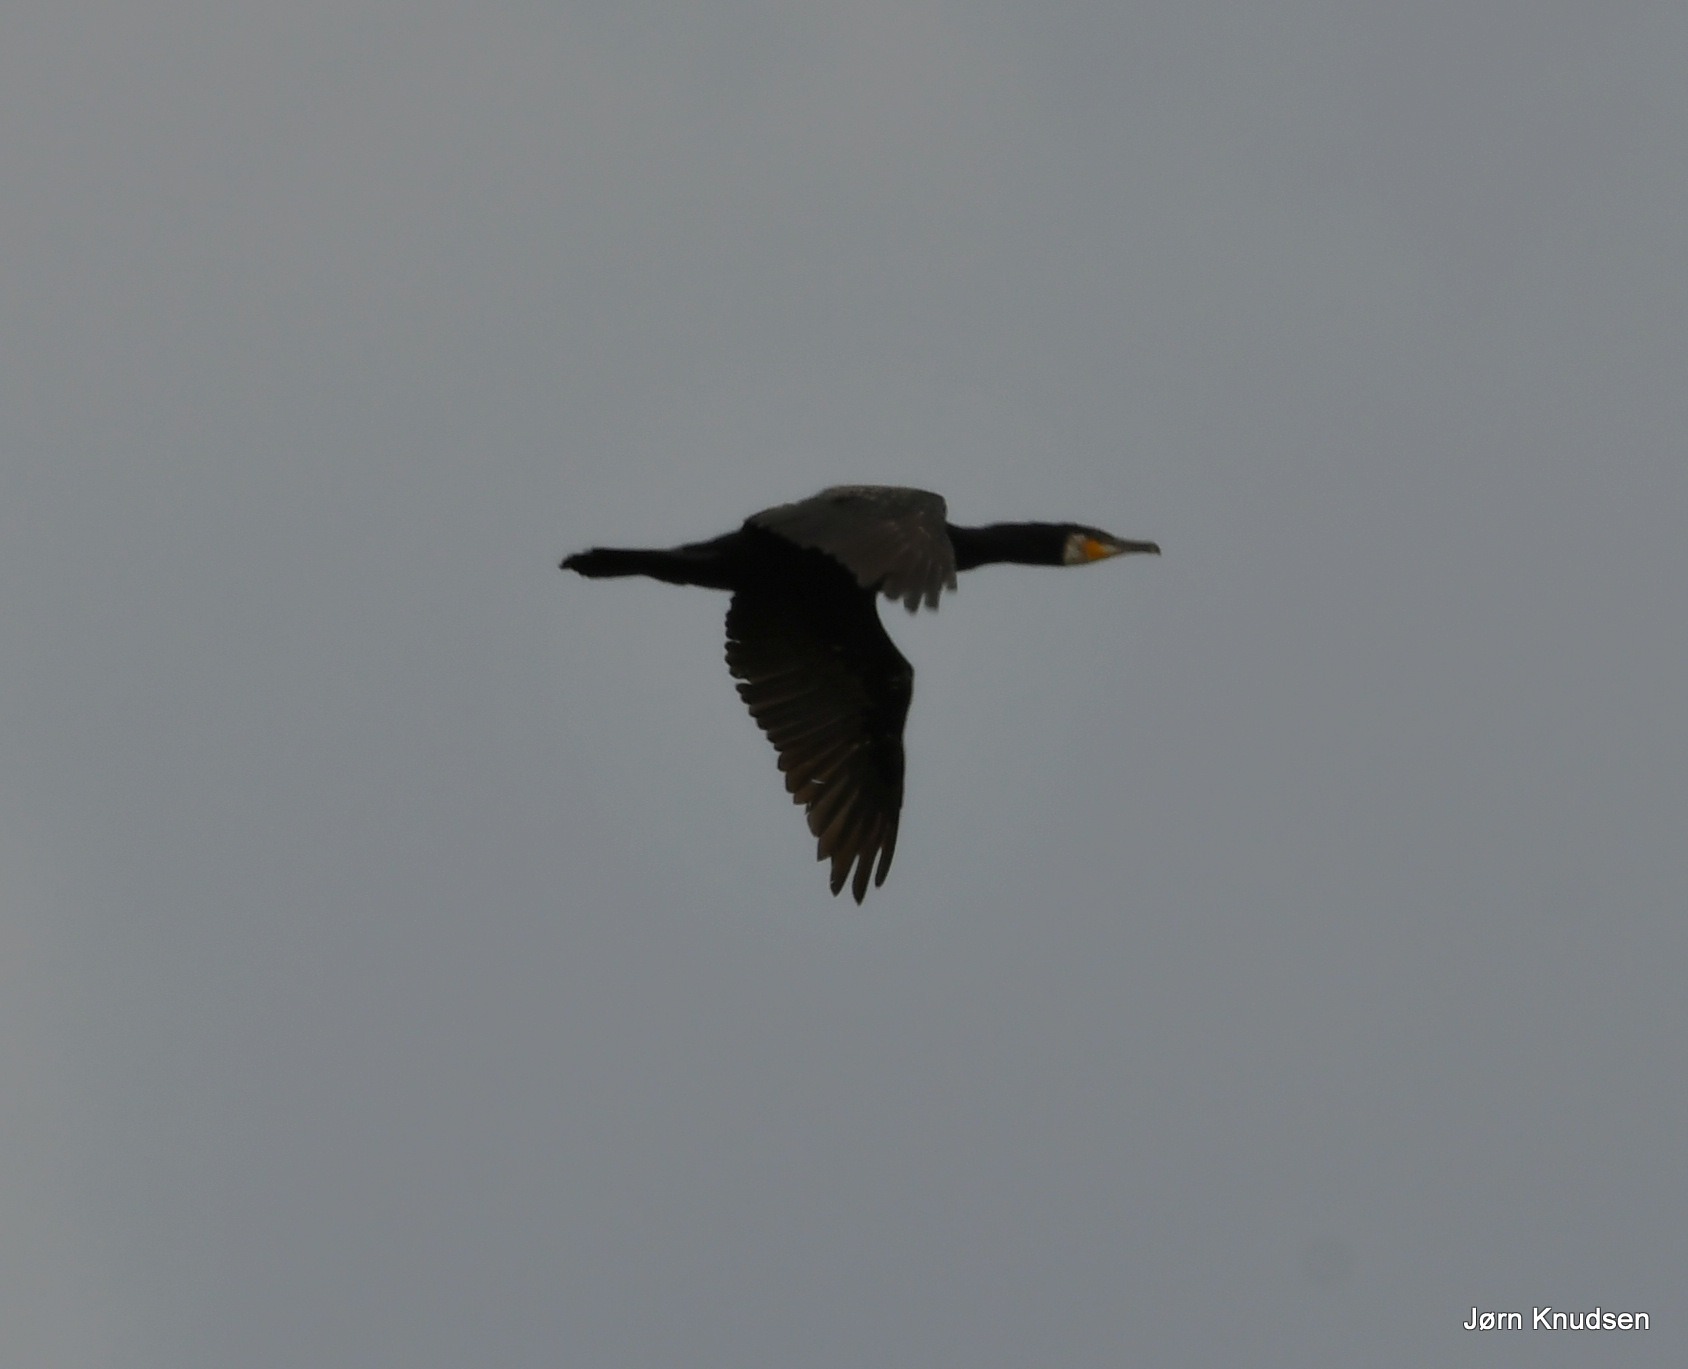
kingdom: Animalia
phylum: Chordata
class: Aves
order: Suliformes
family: Phalacrocoracidae
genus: Phalacrocorax
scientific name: Phalacrocorax carbo
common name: Skarv
